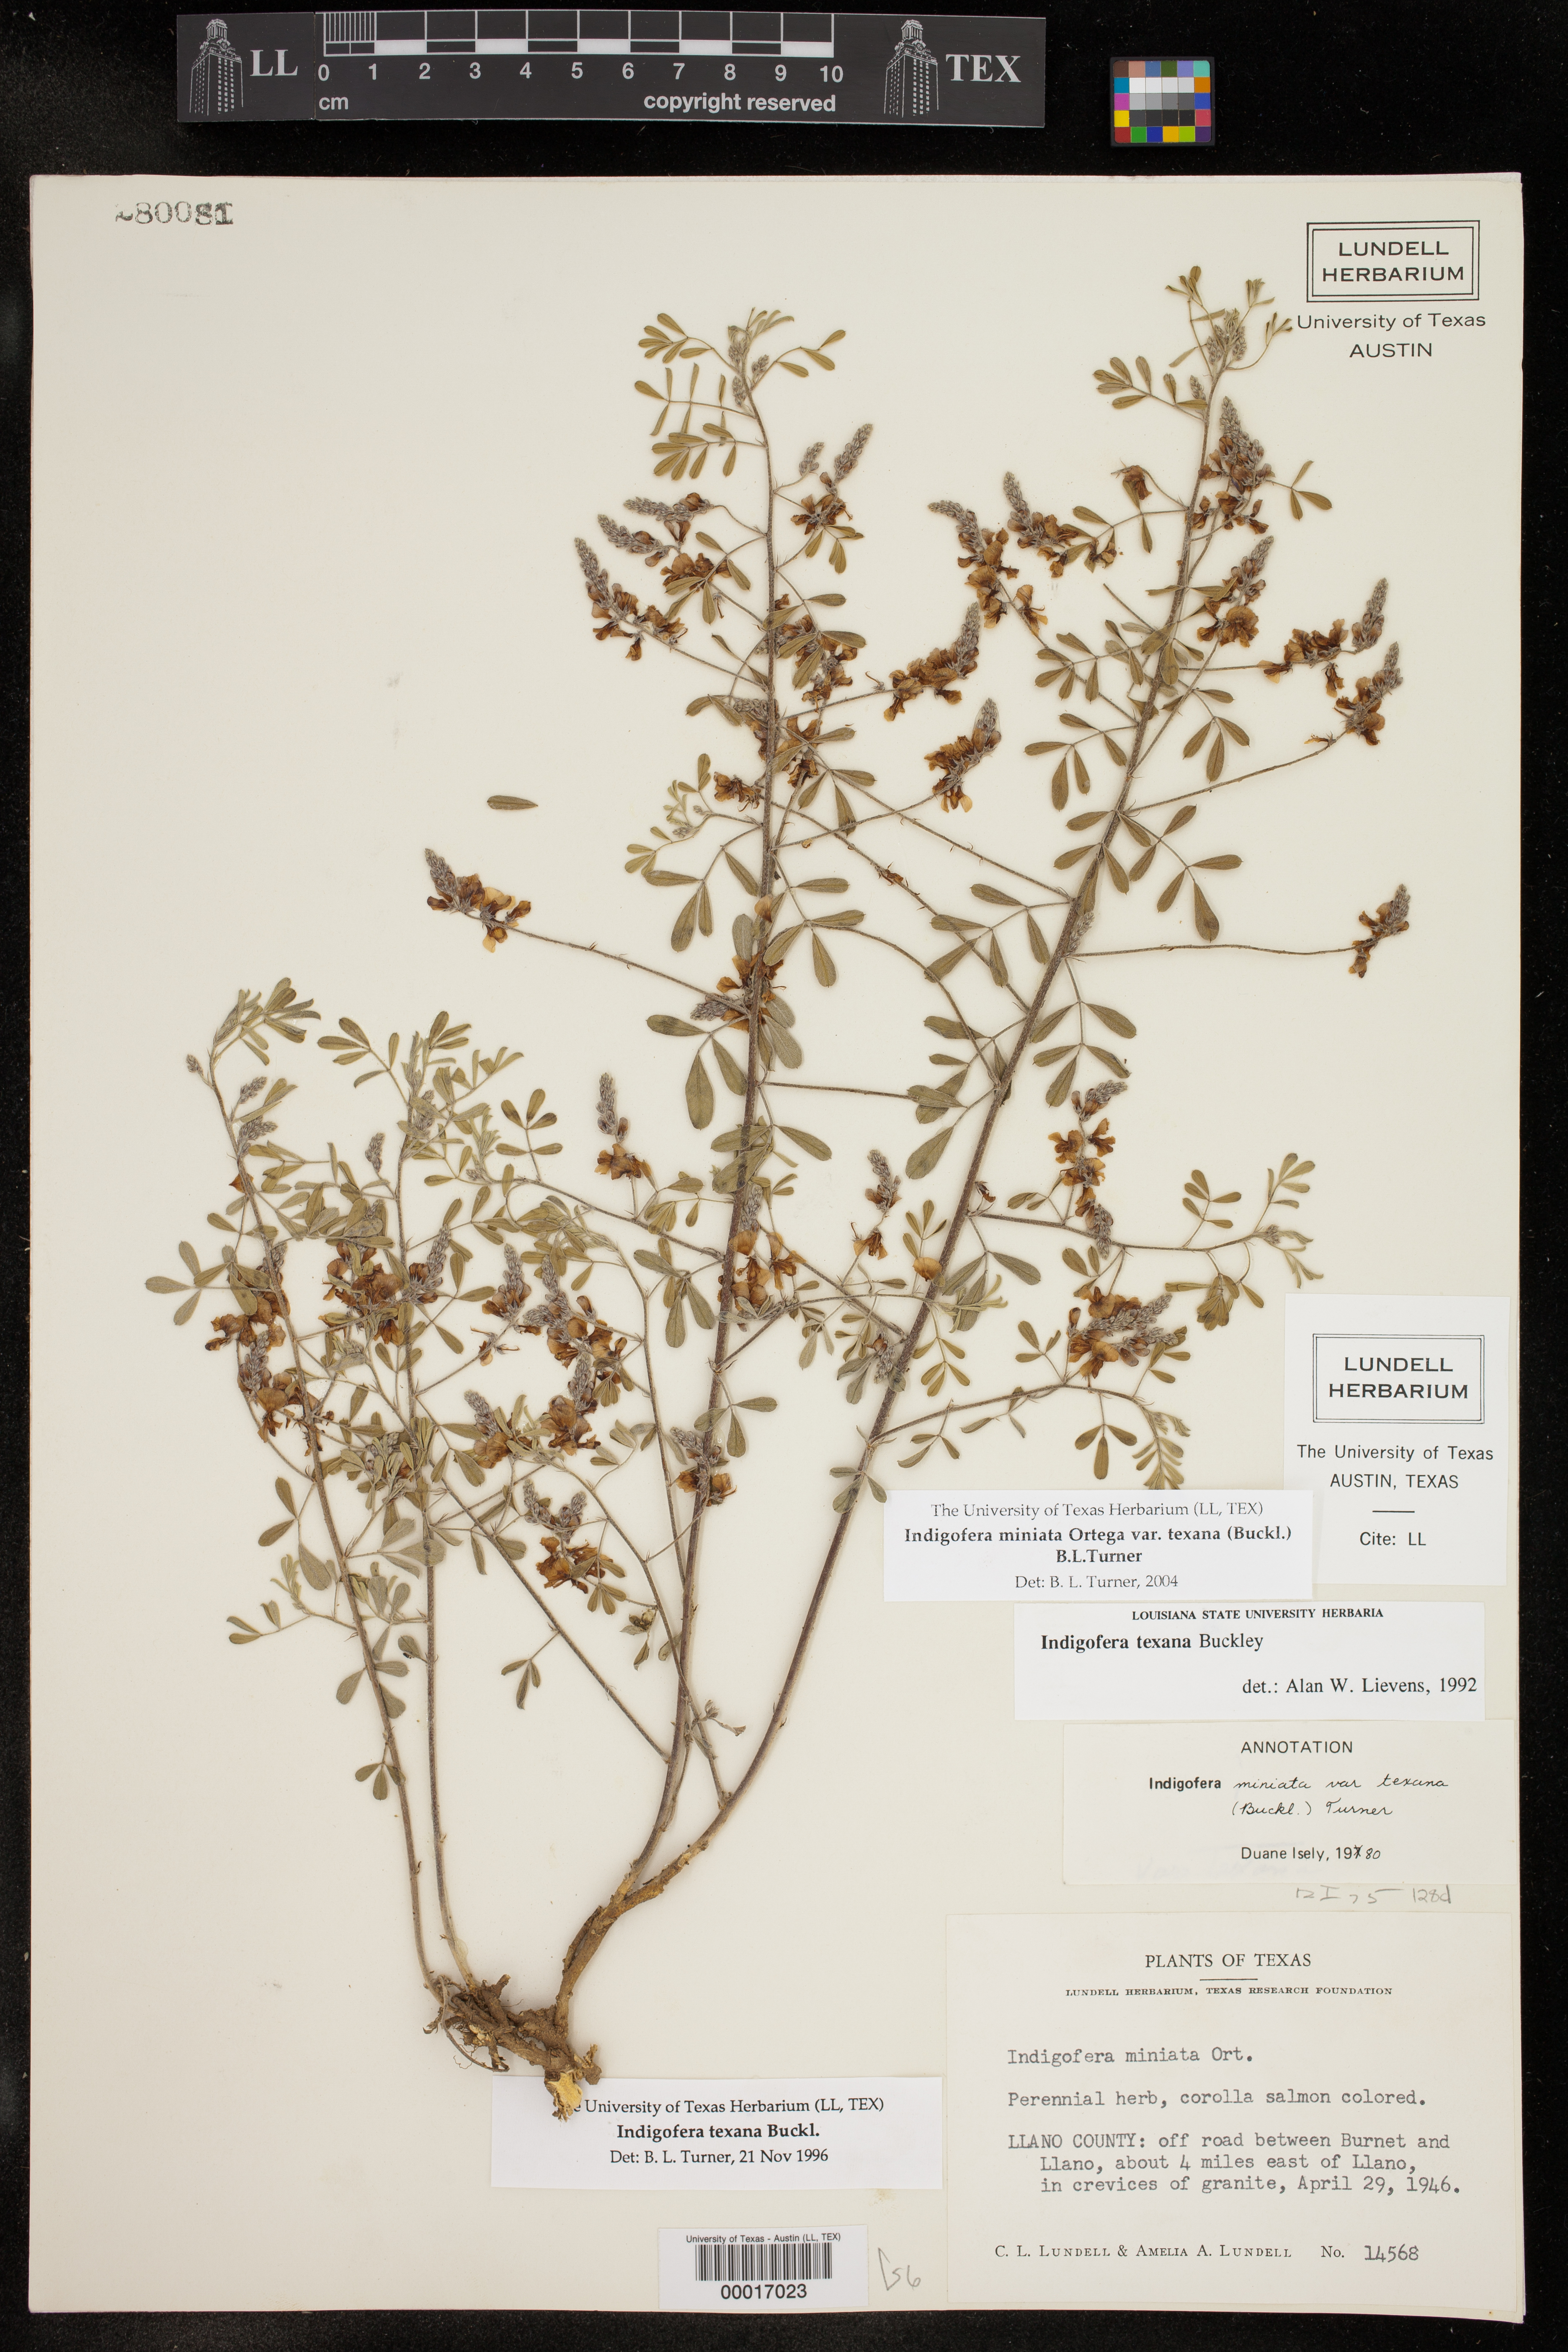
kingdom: Plantae
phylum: Tracheophyta
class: Magnoliopsida
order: Fabales
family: Fabaceae
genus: Indigofera
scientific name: Indigofera miniata
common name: Coast indigo
